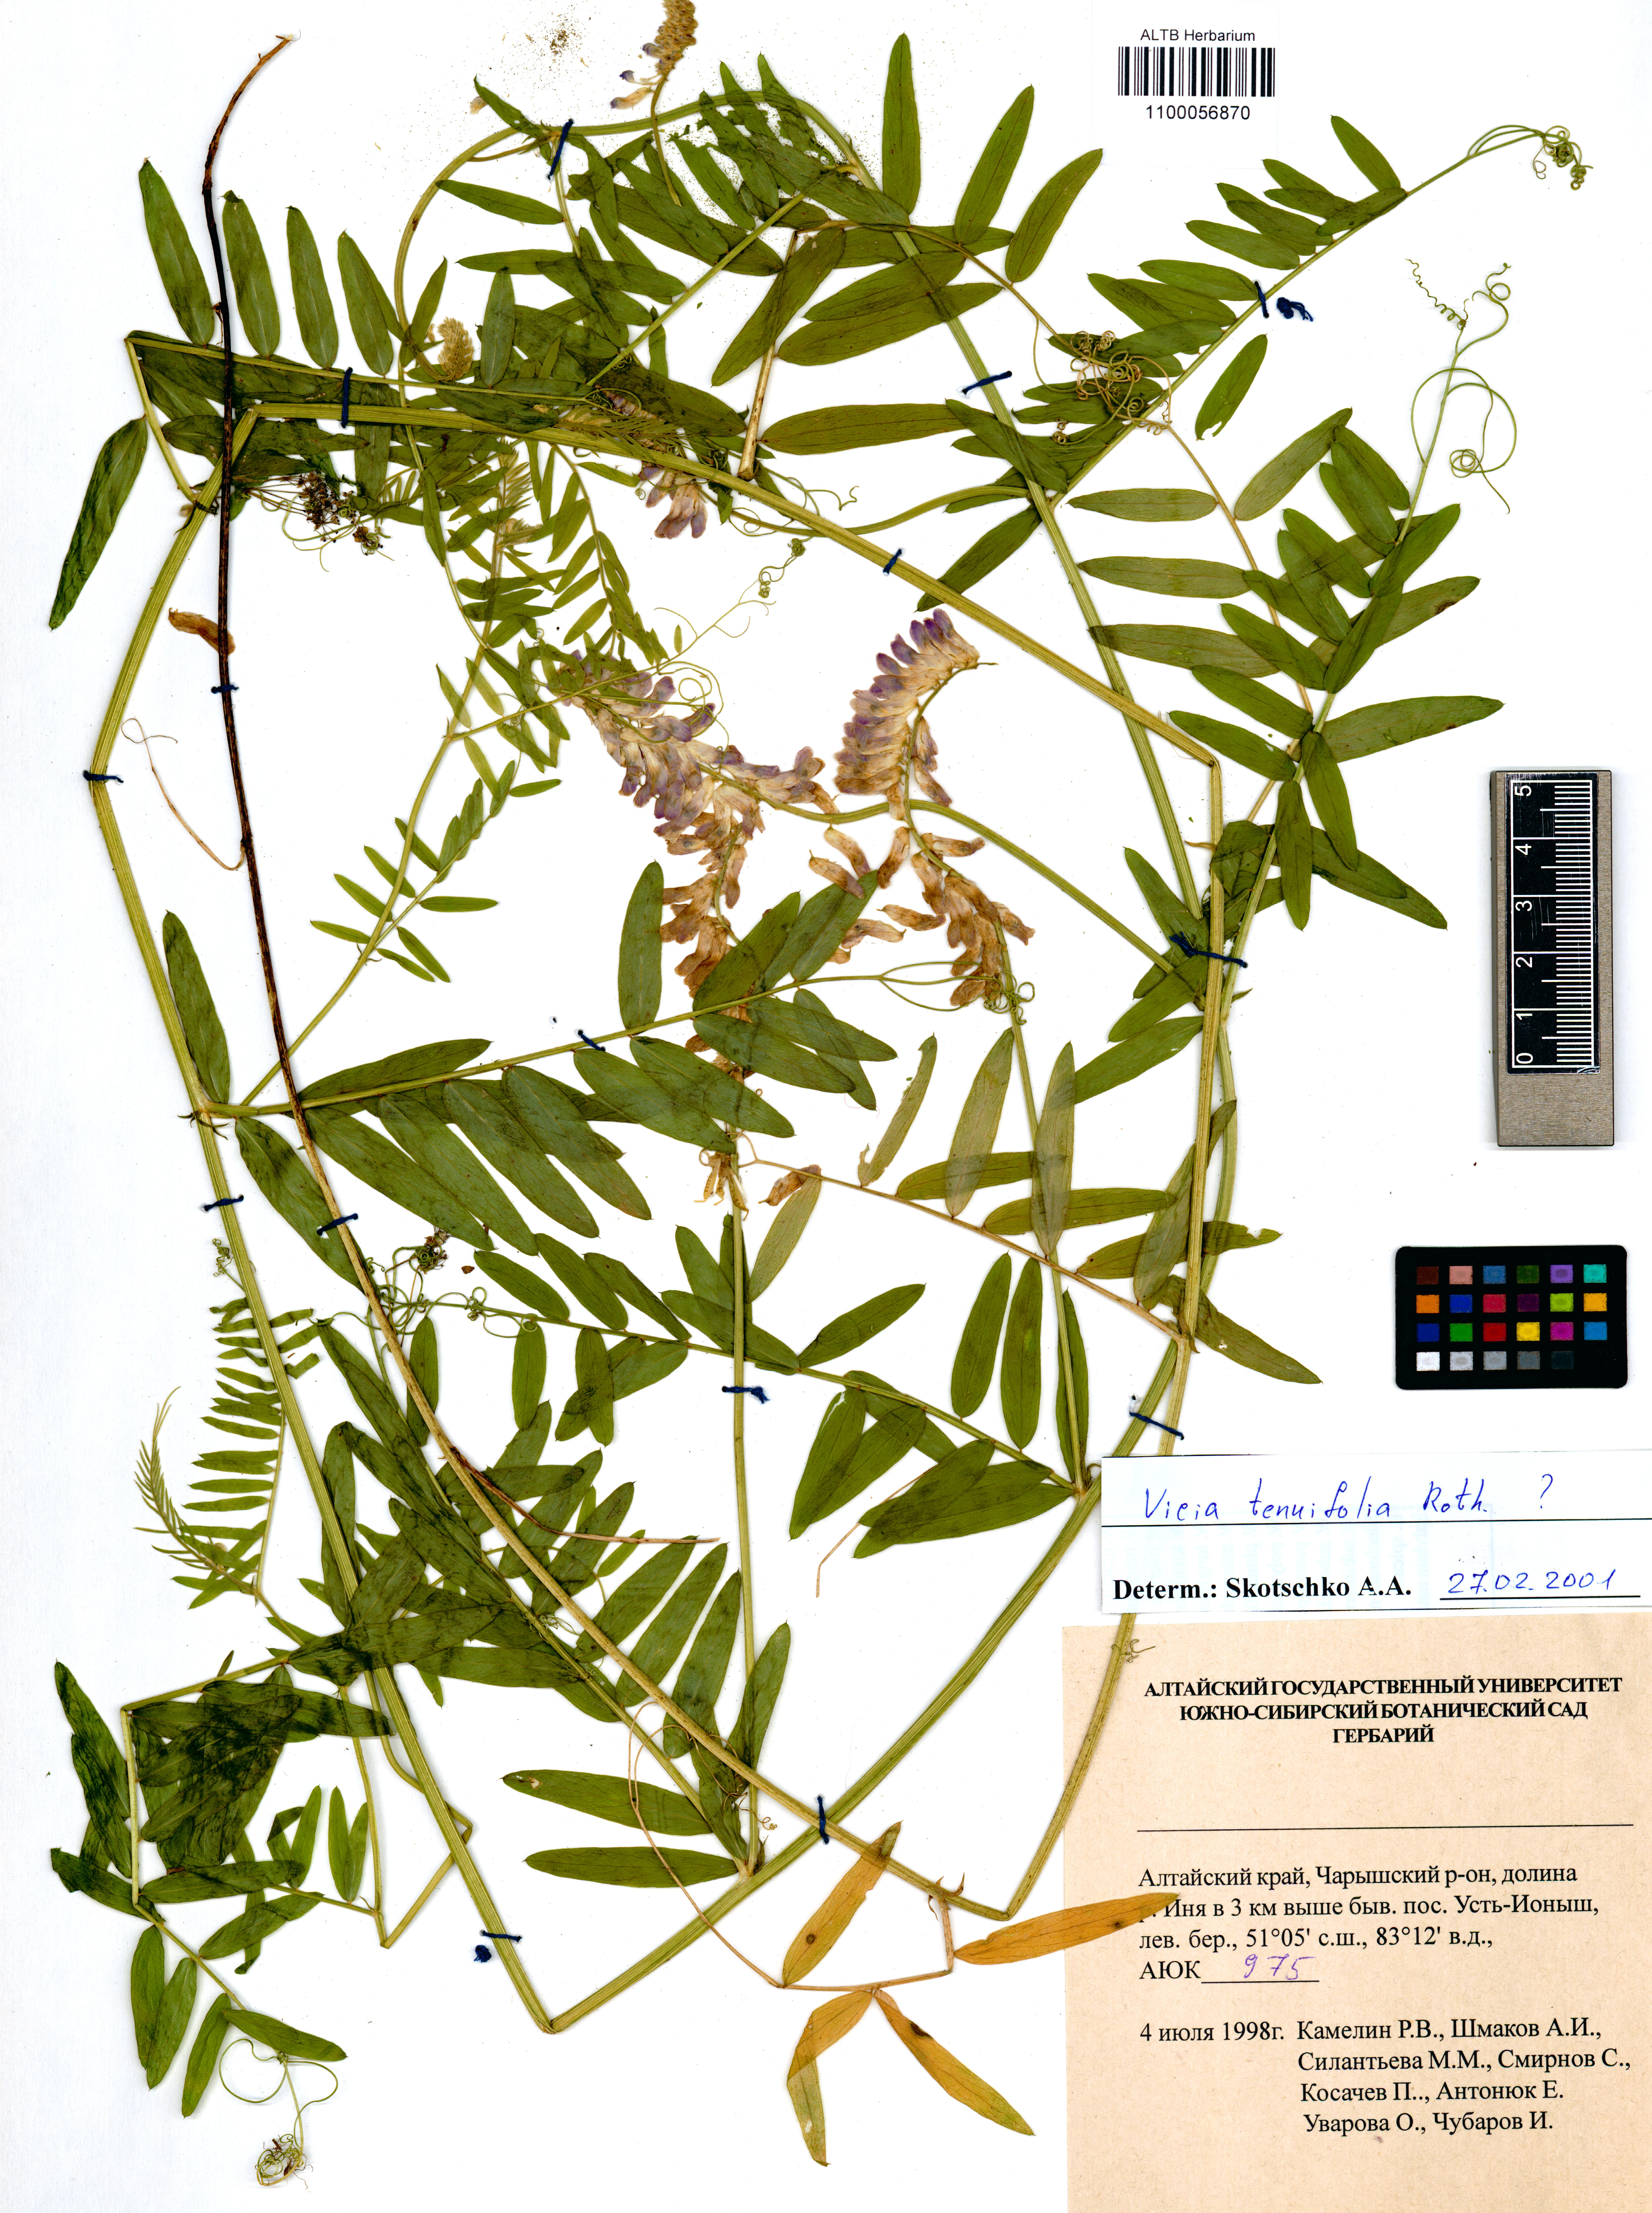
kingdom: Plantae
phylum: Tracheophyta
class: Magnoliopsida
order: Fabales
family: Fabaceae
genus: Vicia
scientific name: Vicia tenuifolia
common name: Fine-leaved vetch
